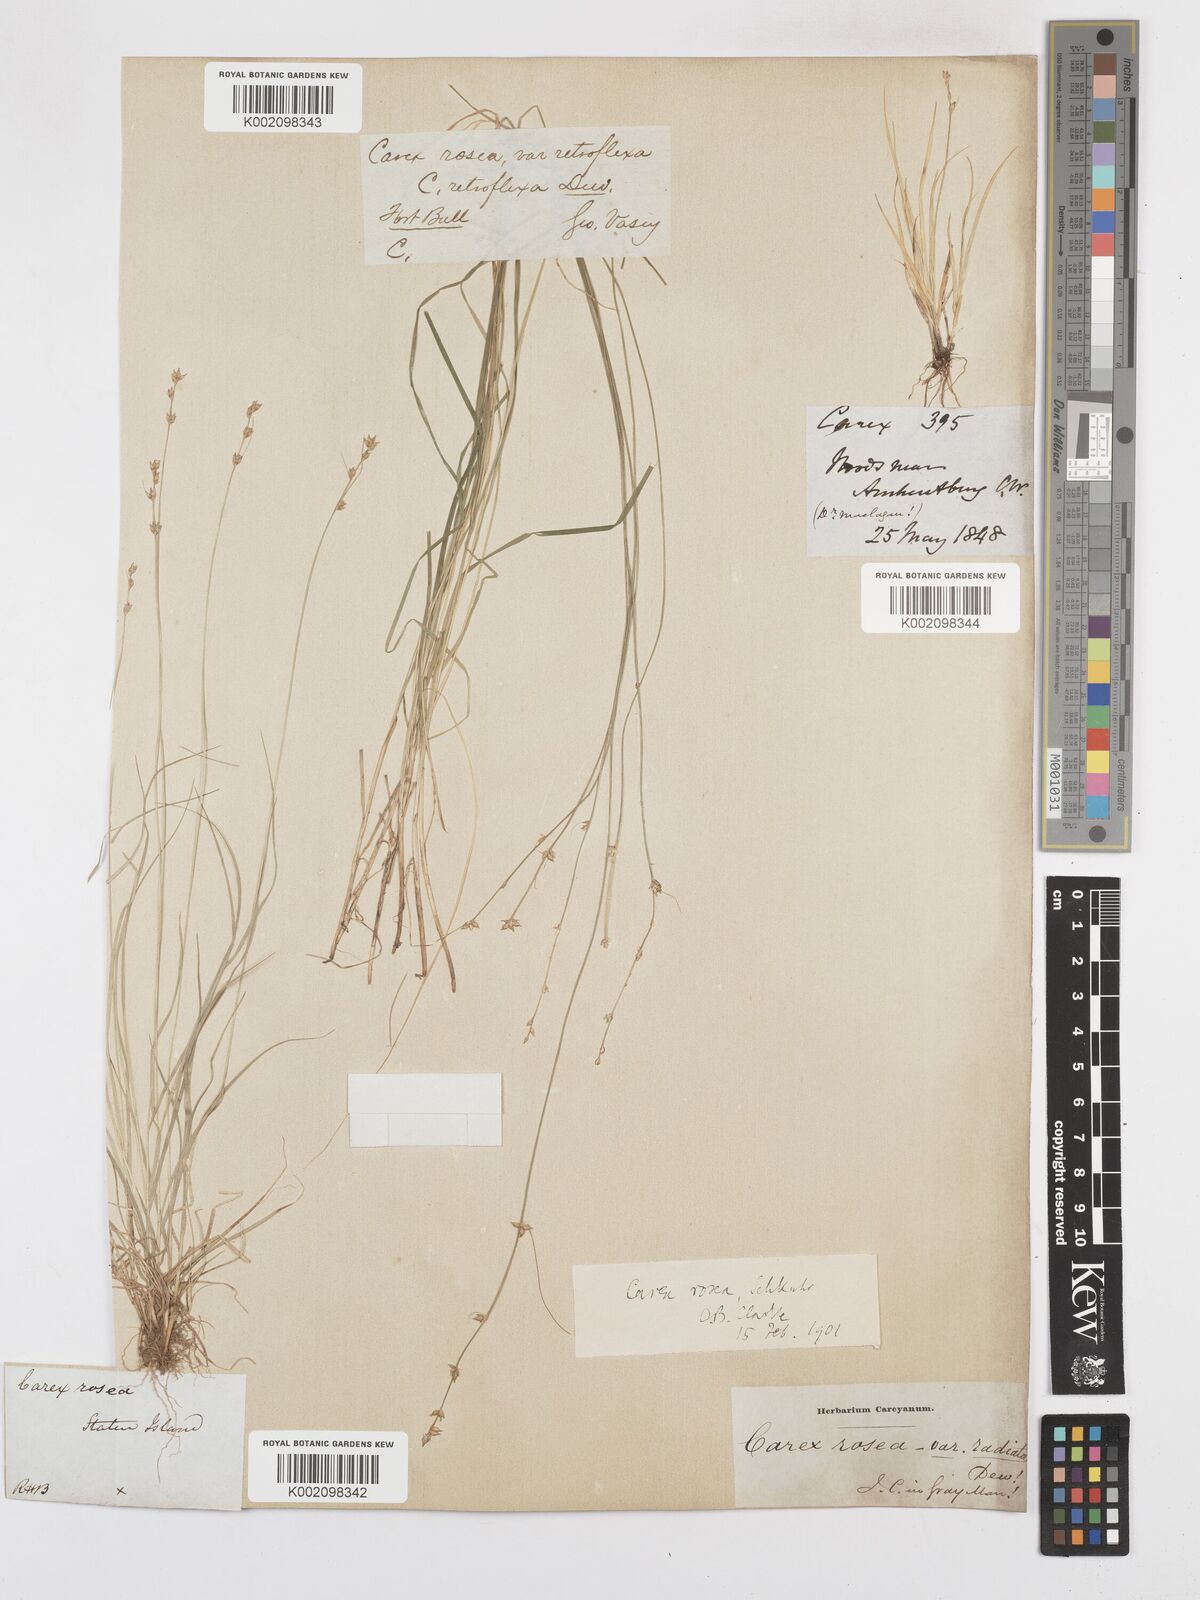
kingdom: Plantae
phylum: Tracheophyta
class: Liliopsida
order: Poales
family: Cyperaceae
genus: Carex
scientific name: Carex rosea
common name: Curly-styled wood sedge
